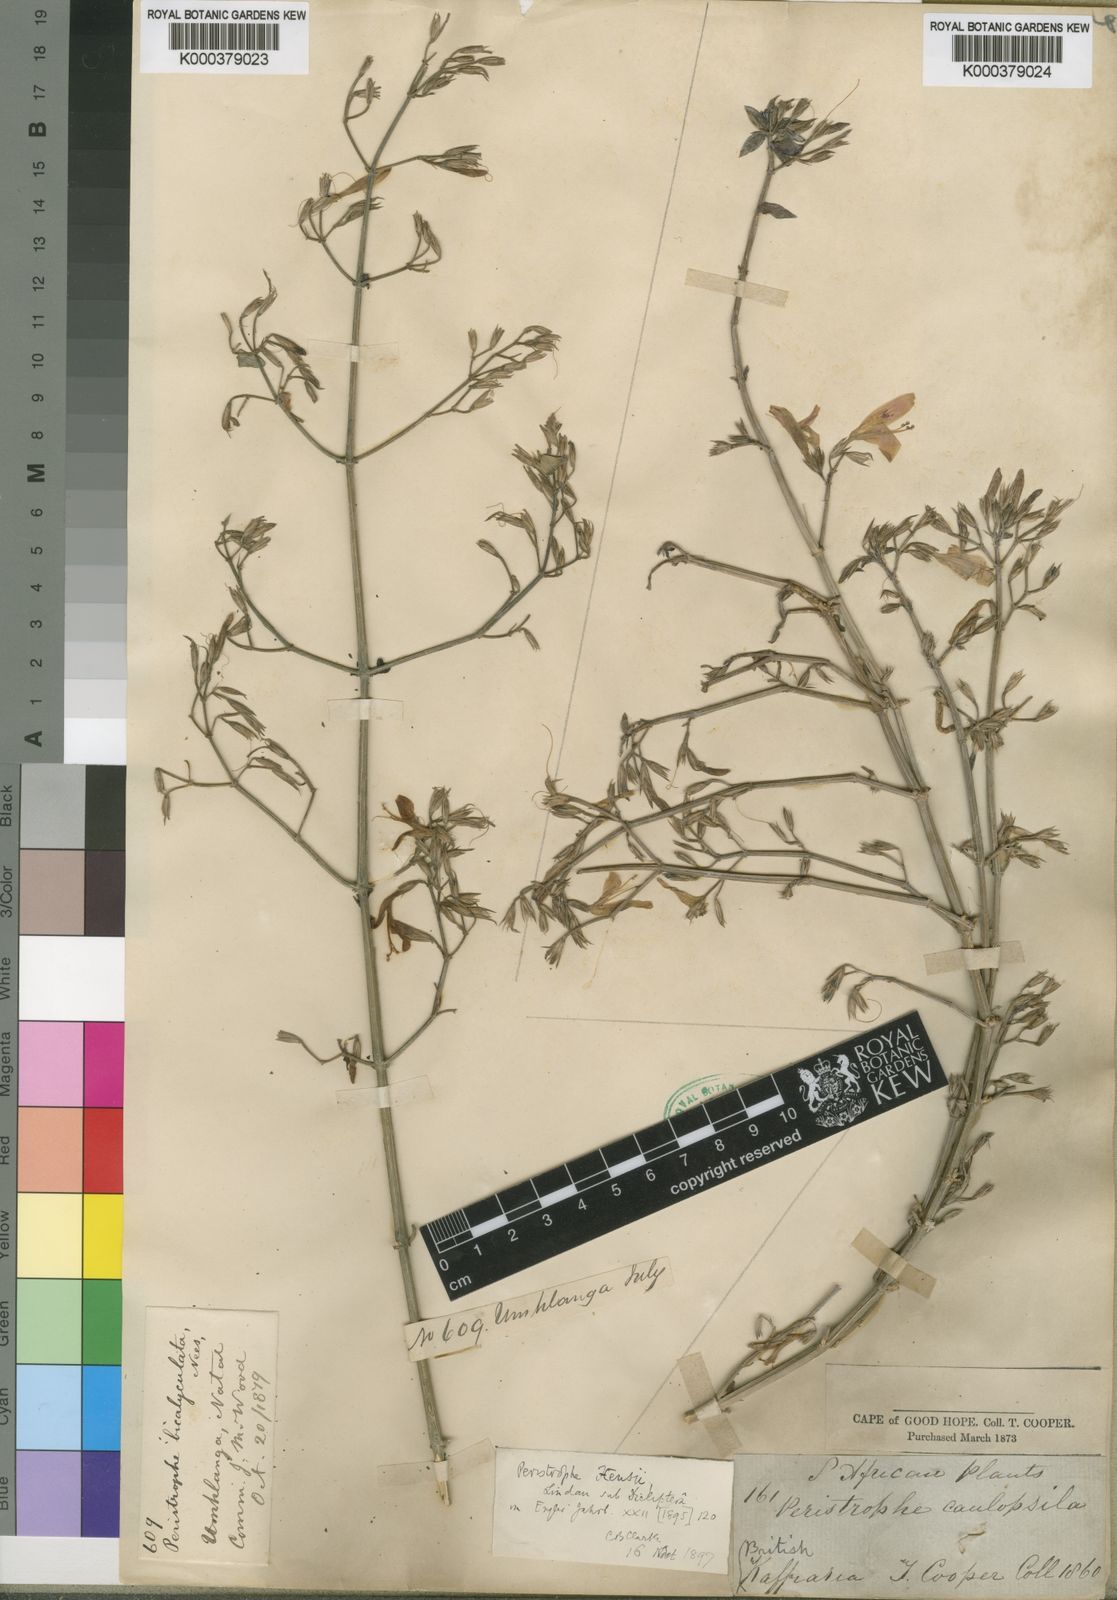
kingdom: Plantae
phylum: Tracheophyta
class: Magnoliopsida
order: Lamiales
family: Acanthaceae
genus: Dicliptera
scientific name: Dicliptera cernua
